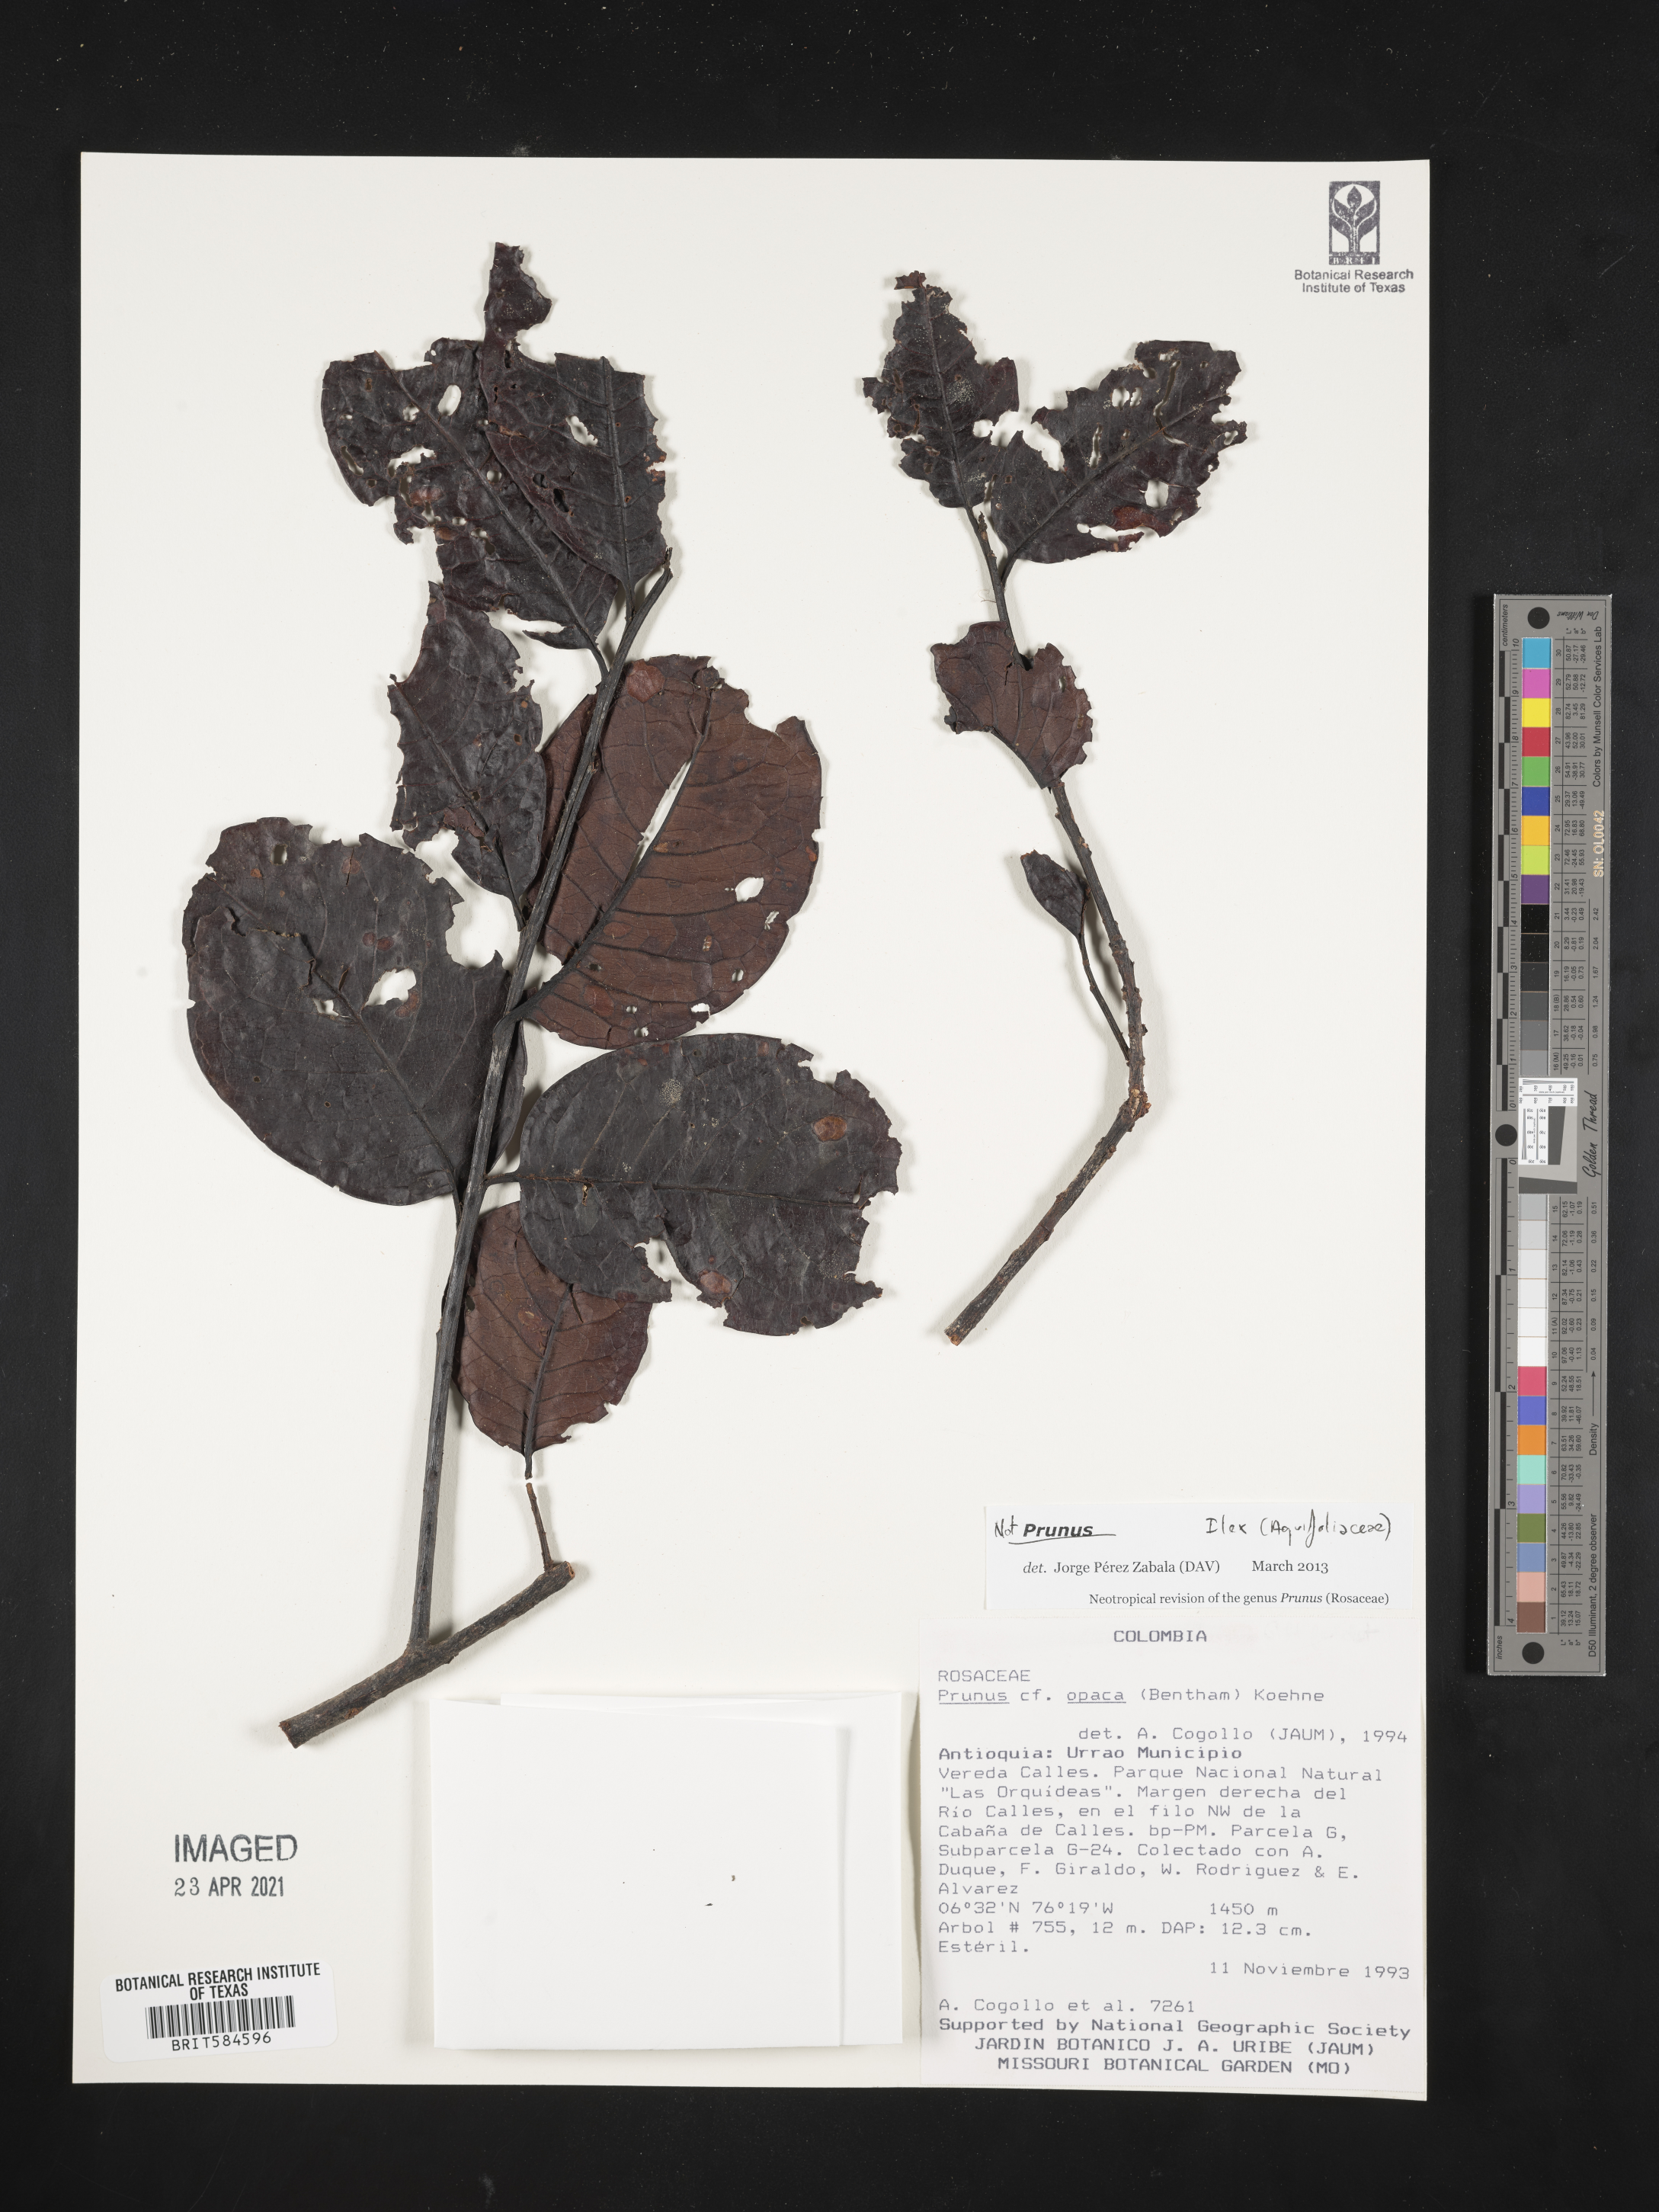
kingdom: Plantae
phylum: Tracheophyta
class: Magnoliopsida
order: Aquifoliales
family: Aquifoliaceae
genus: Ilex
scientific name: Ilex
